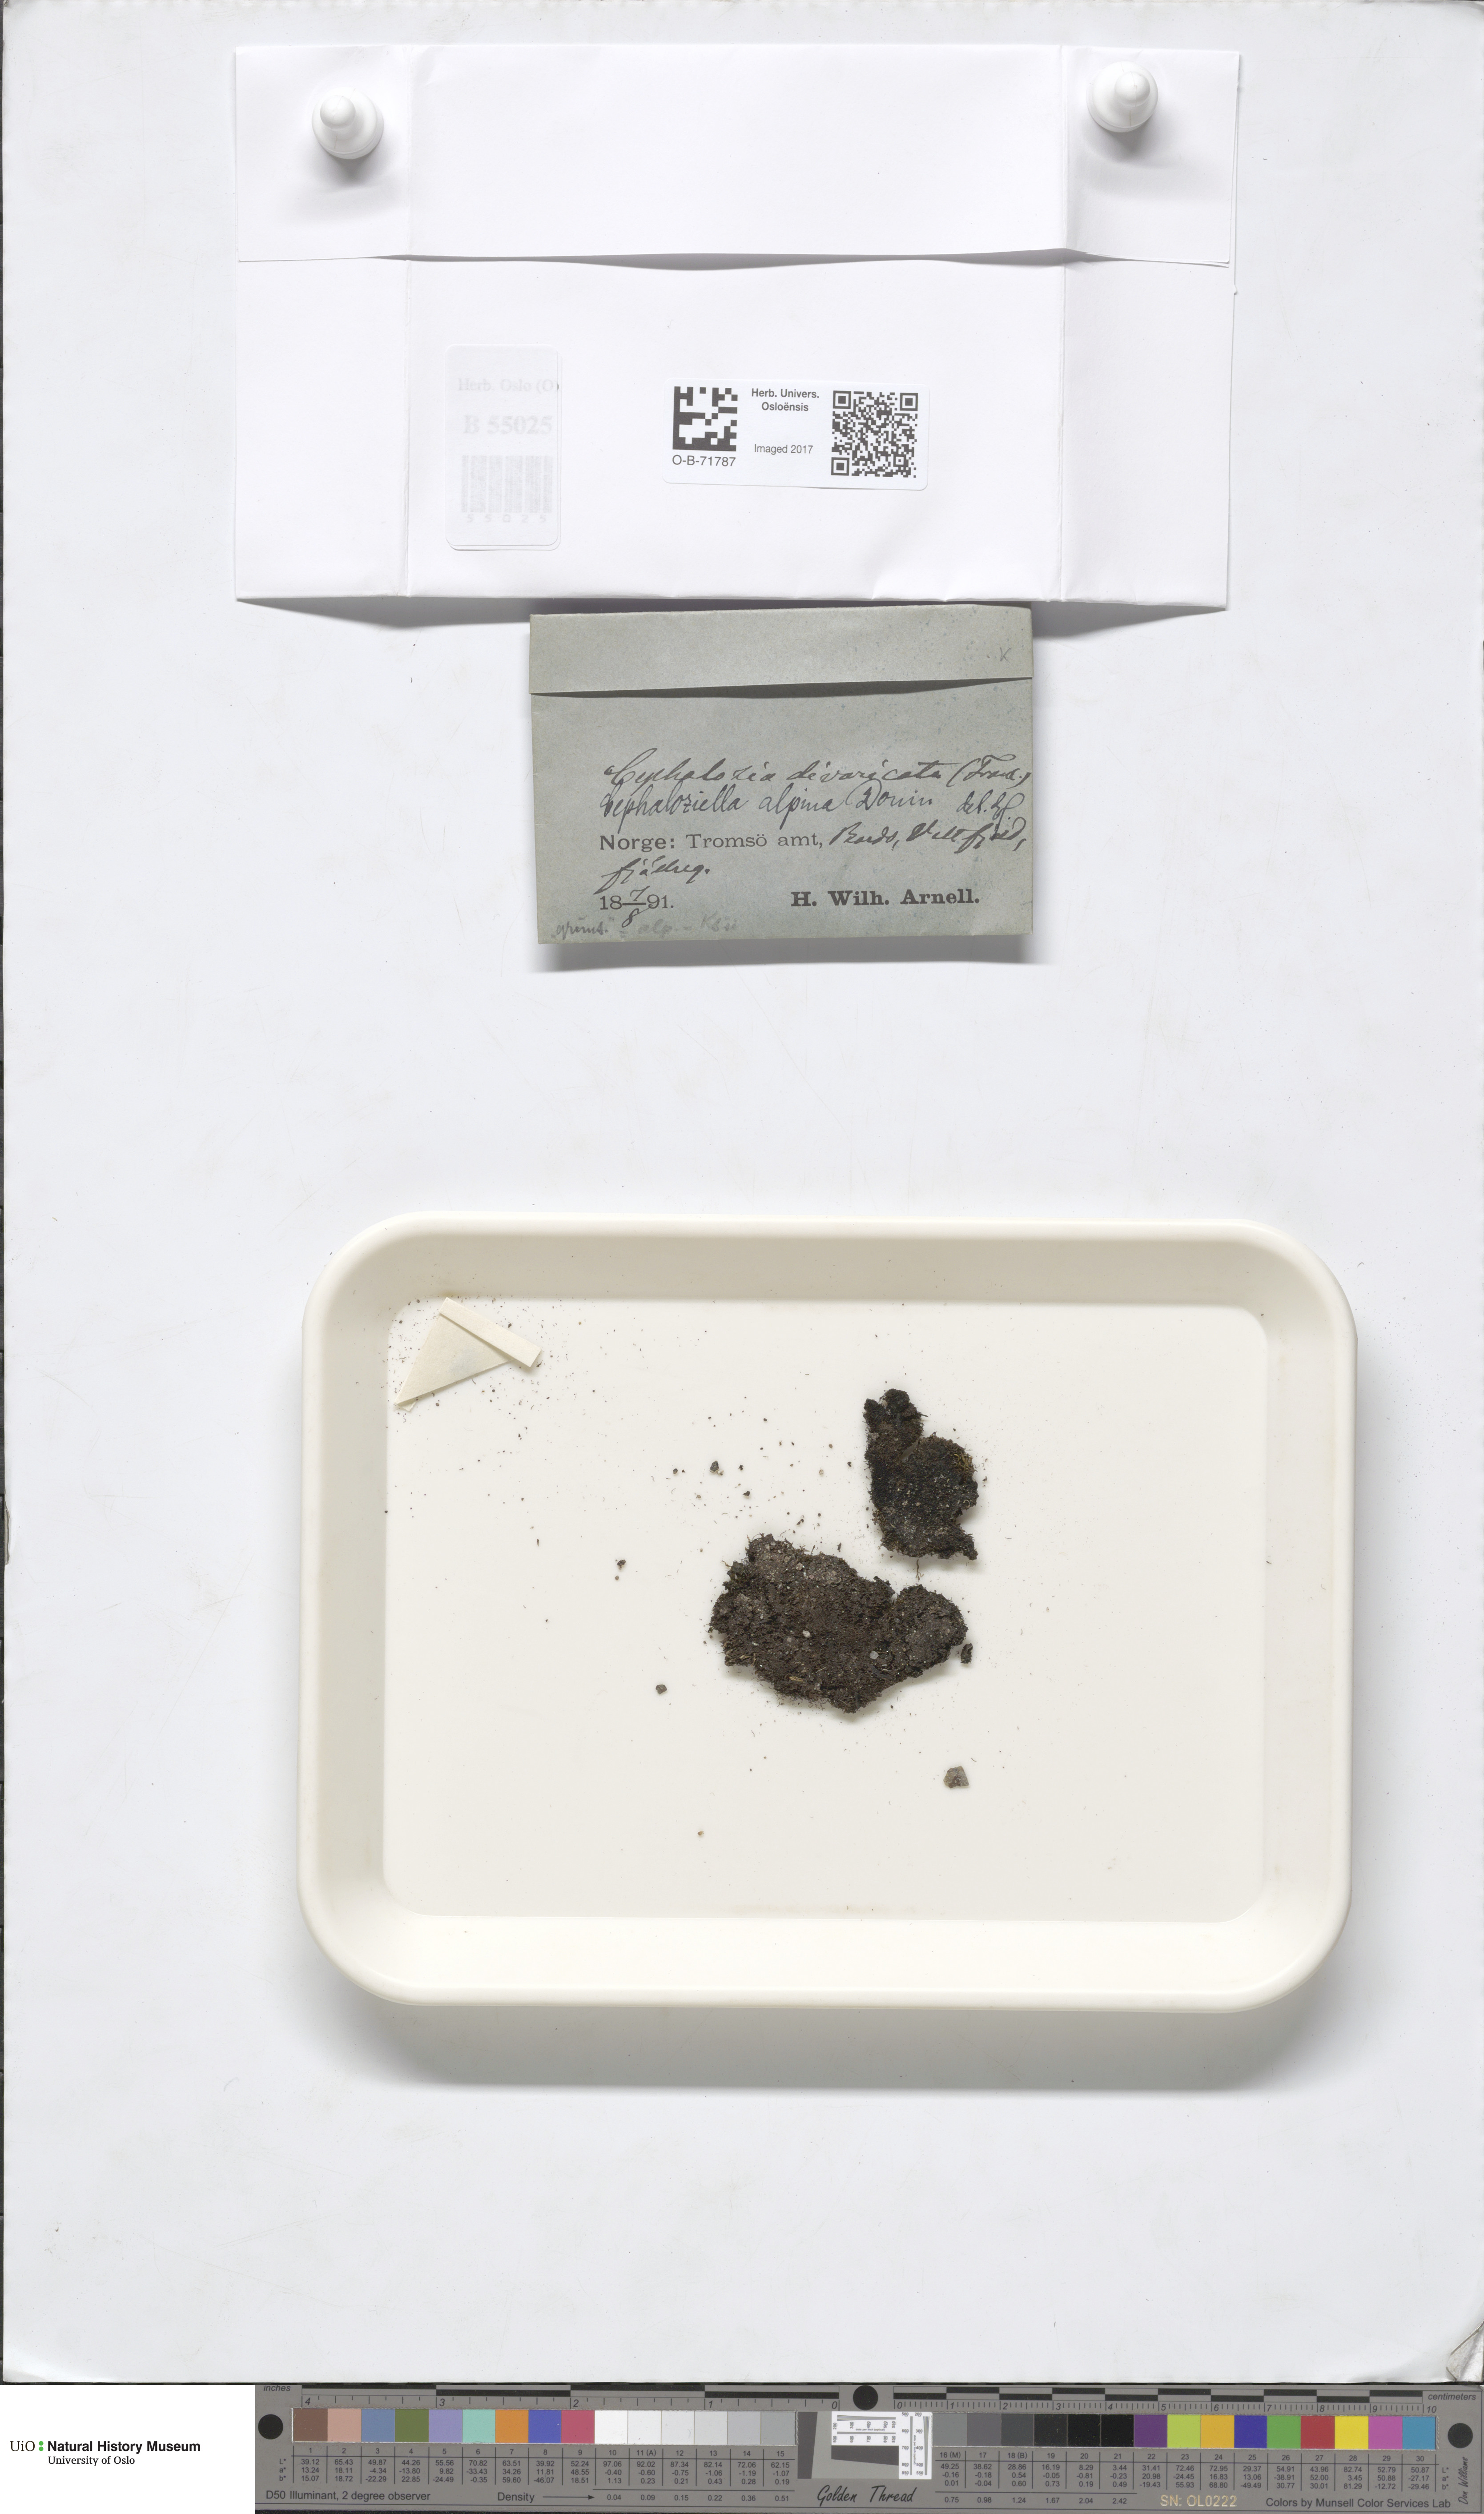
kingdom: Plantae
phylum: Marchantiophyta
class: Jungermanniopsida
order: Jungermanniales
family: Cephaloziellaceae
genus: Cephaloziella
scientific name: Cephaloziella varians
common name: Arctic threadwort
